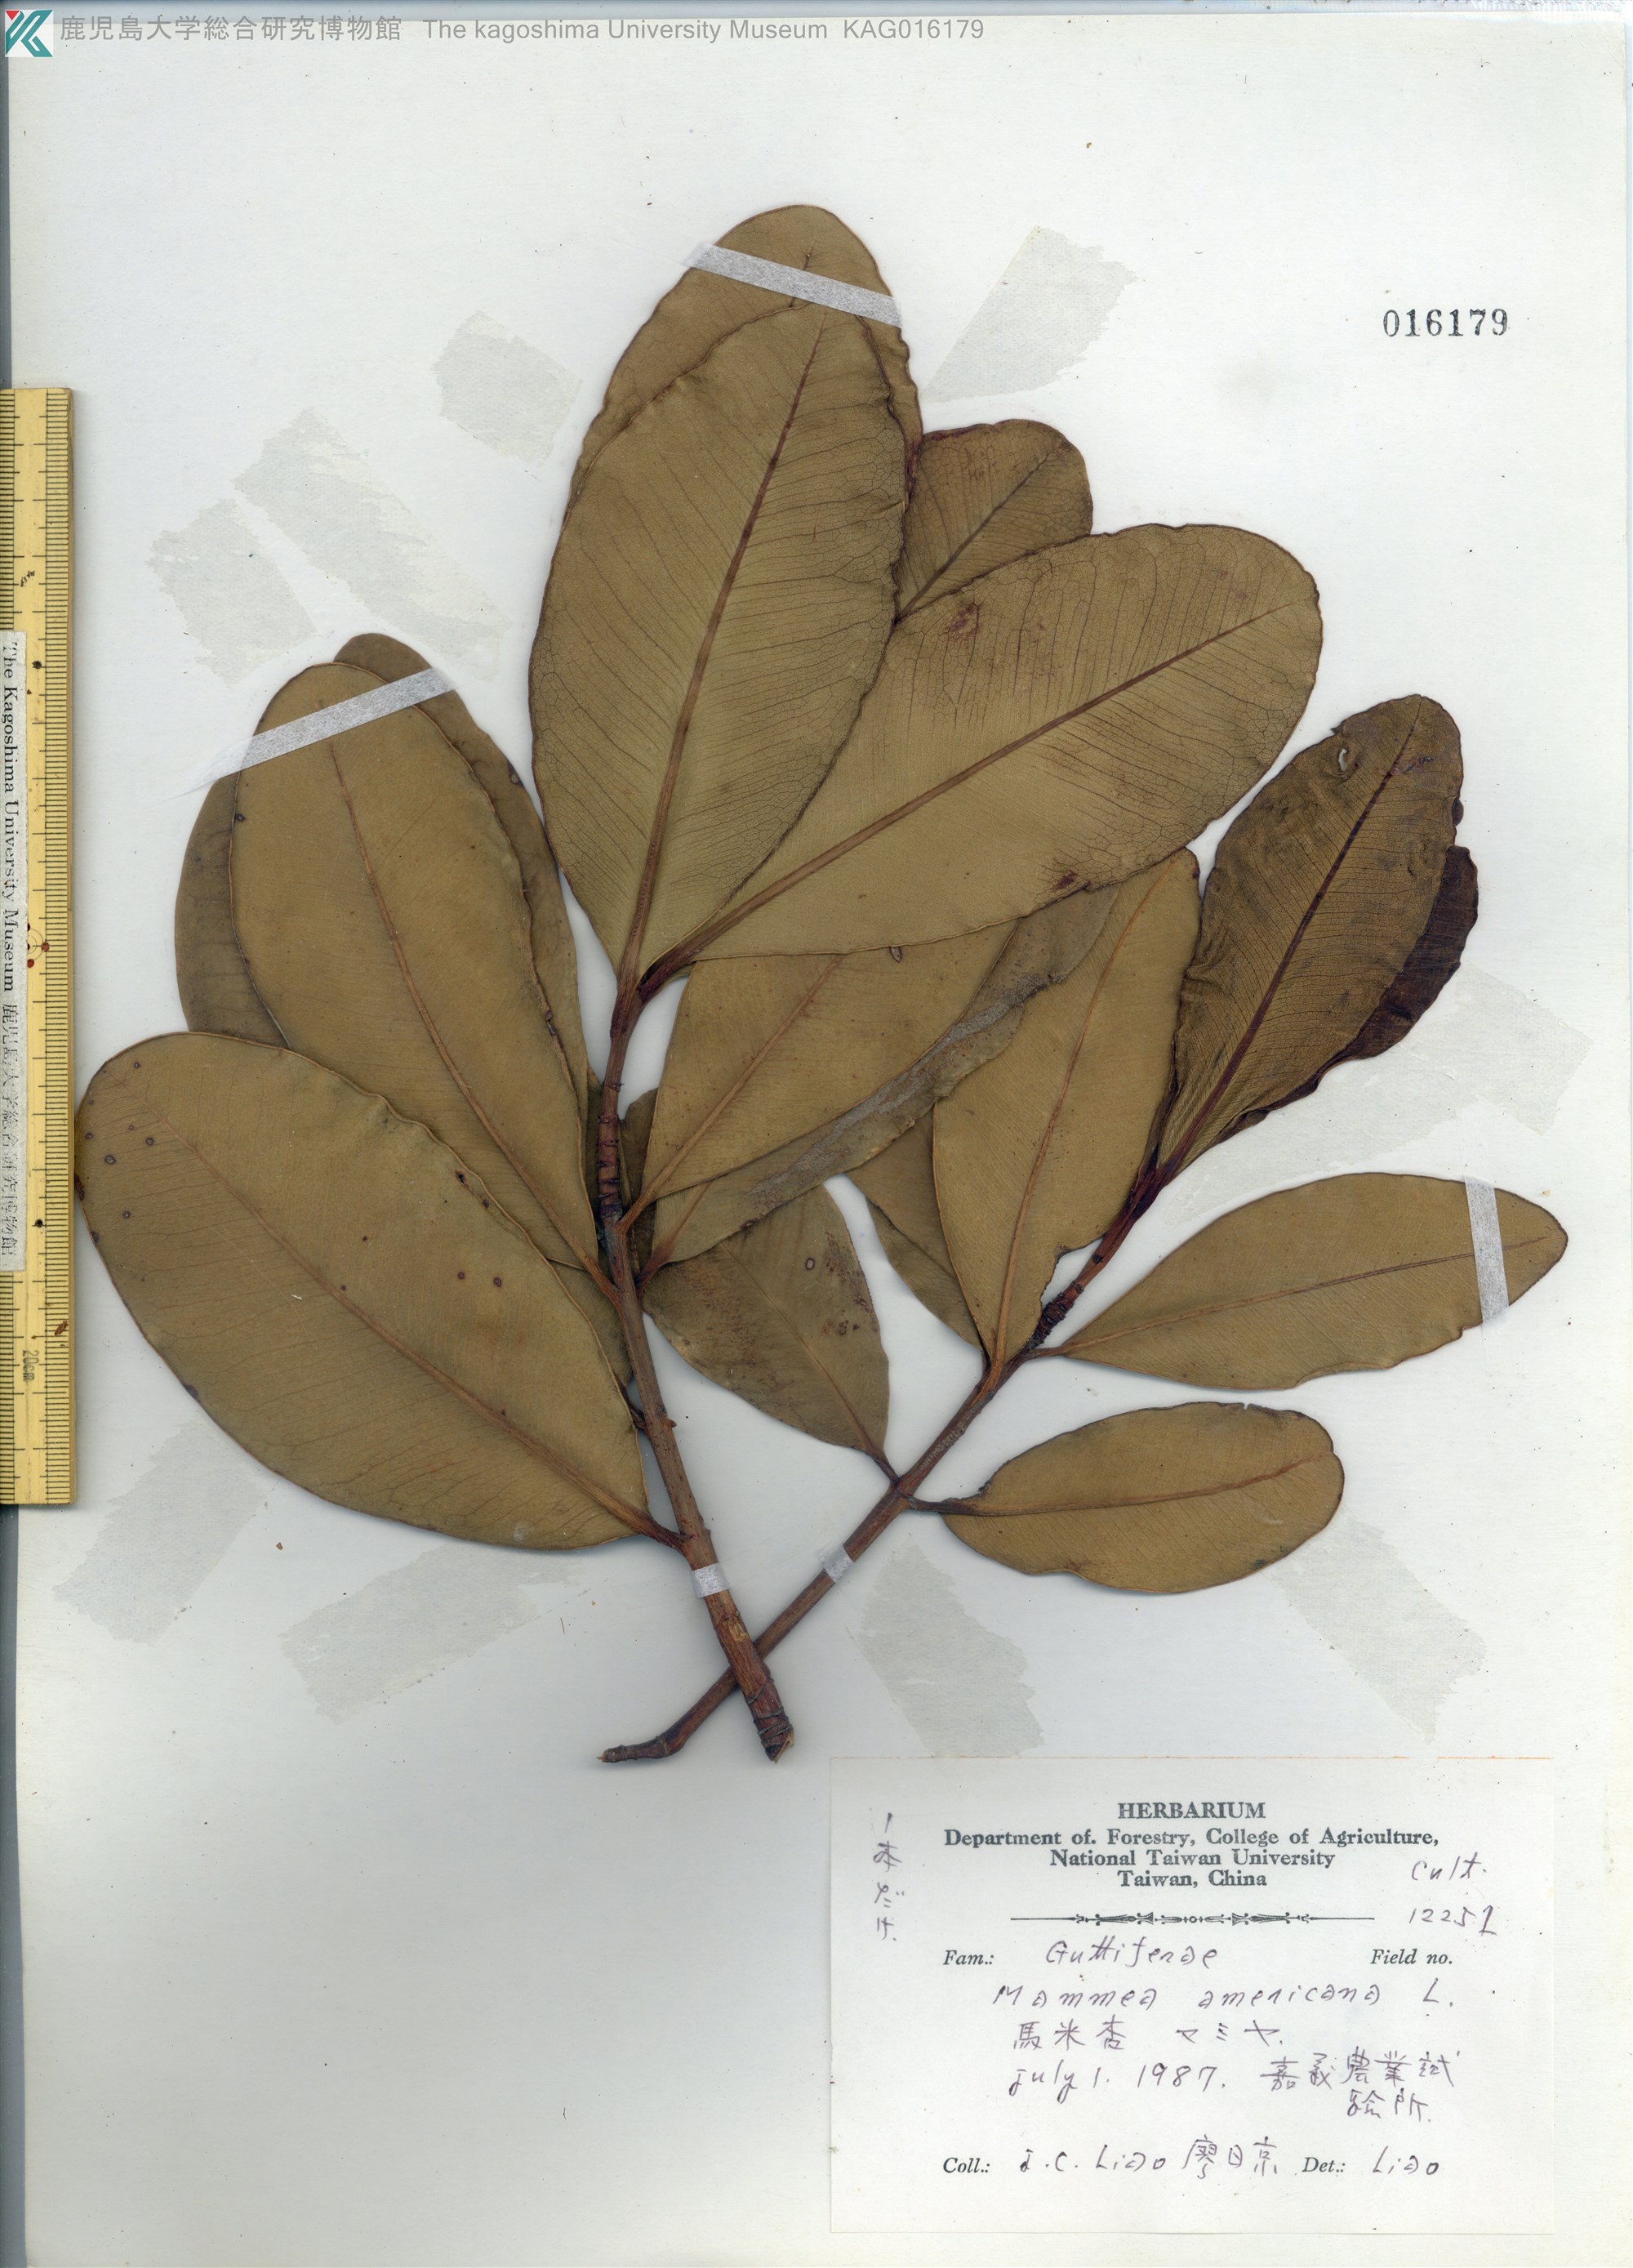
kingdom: Plantae
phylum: Tracheophyta
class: Magnoliopsida
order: Malpighiales
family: Calophyllaceae
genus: Mammea
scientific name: Mammea americana
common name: Mamey
